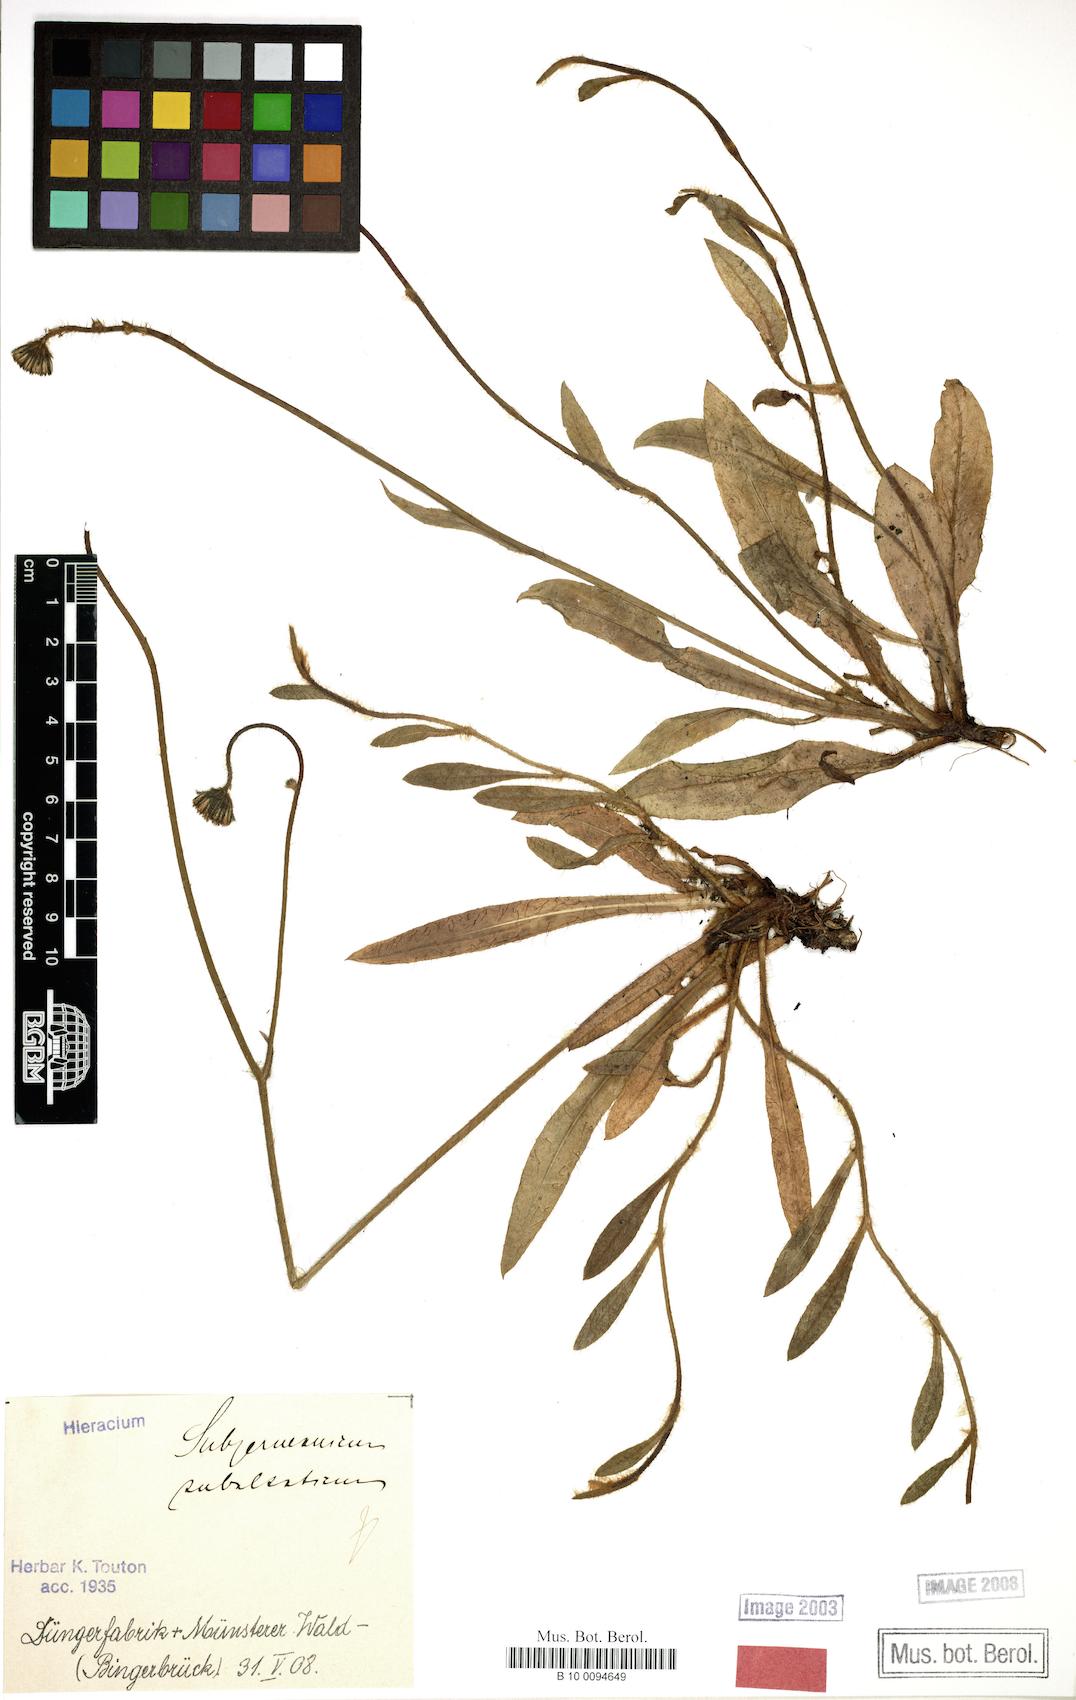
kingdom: Plantae
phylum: Tracheophyta
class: Magnoliopsida
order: Asterales
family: Asteraceae
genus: Pilosella
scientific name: Pilosella pilosellina
